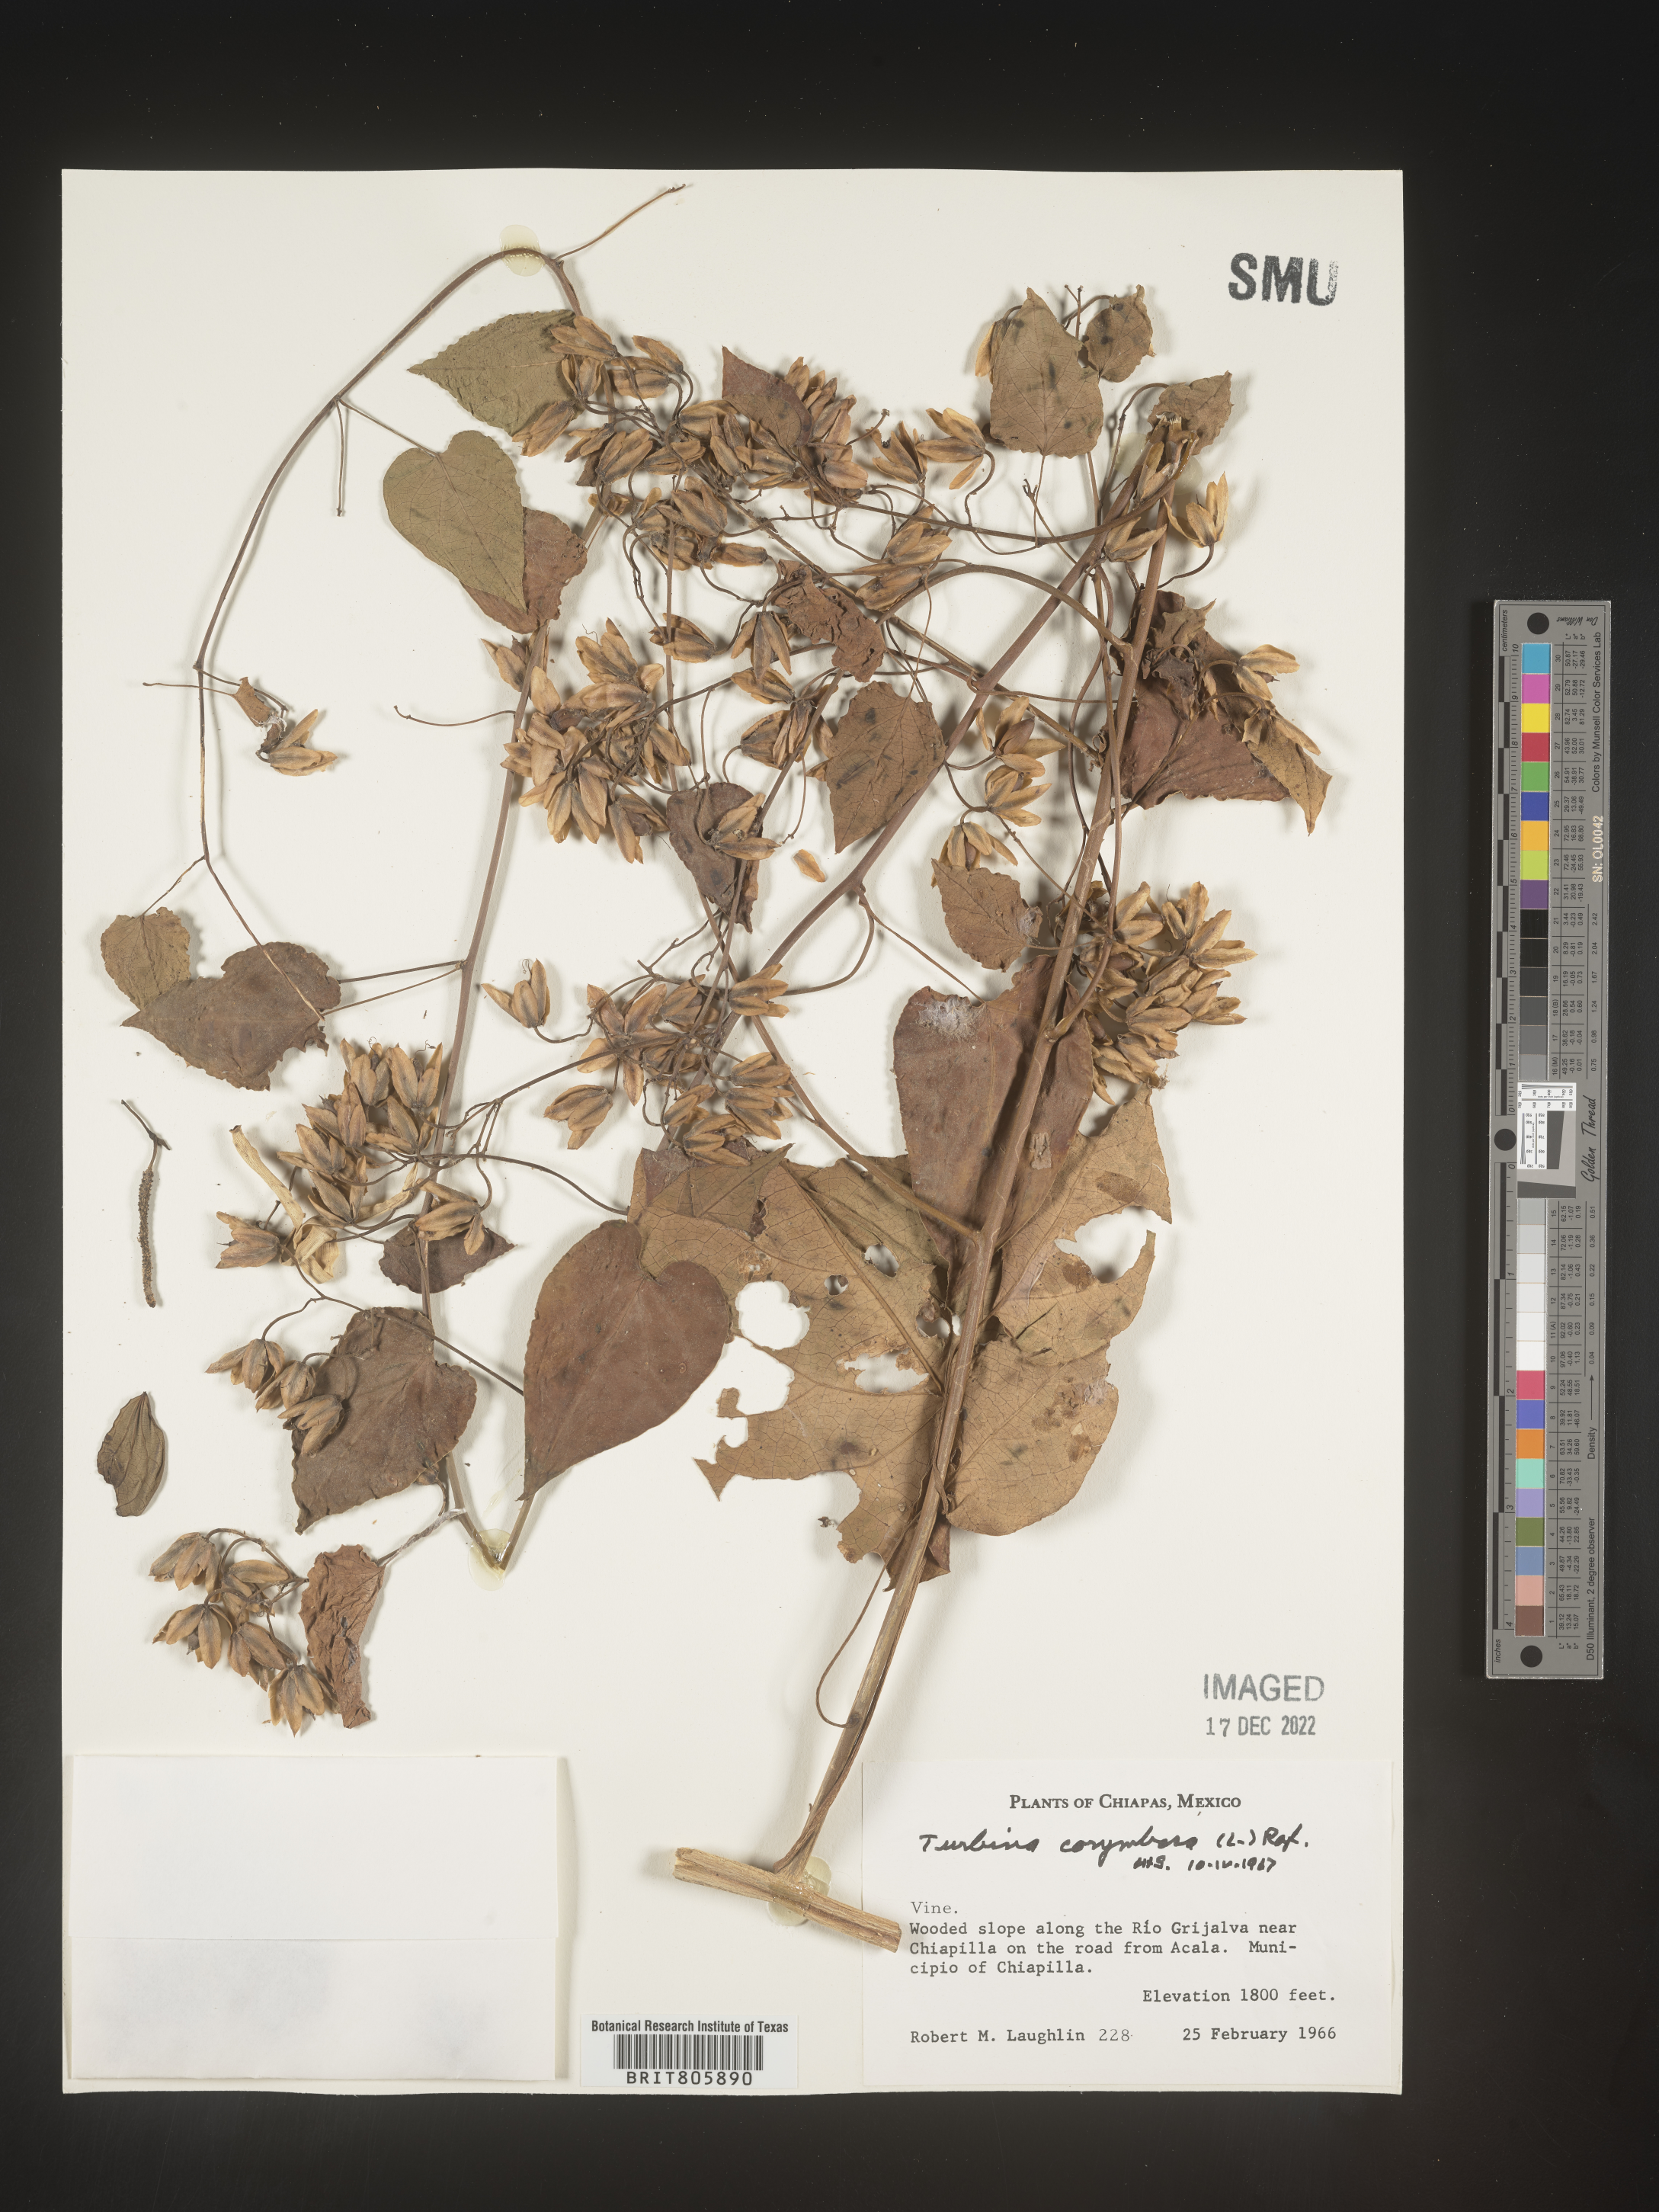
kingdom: Animalia
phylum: Mollusca
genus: Turbina
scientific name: Turbina
